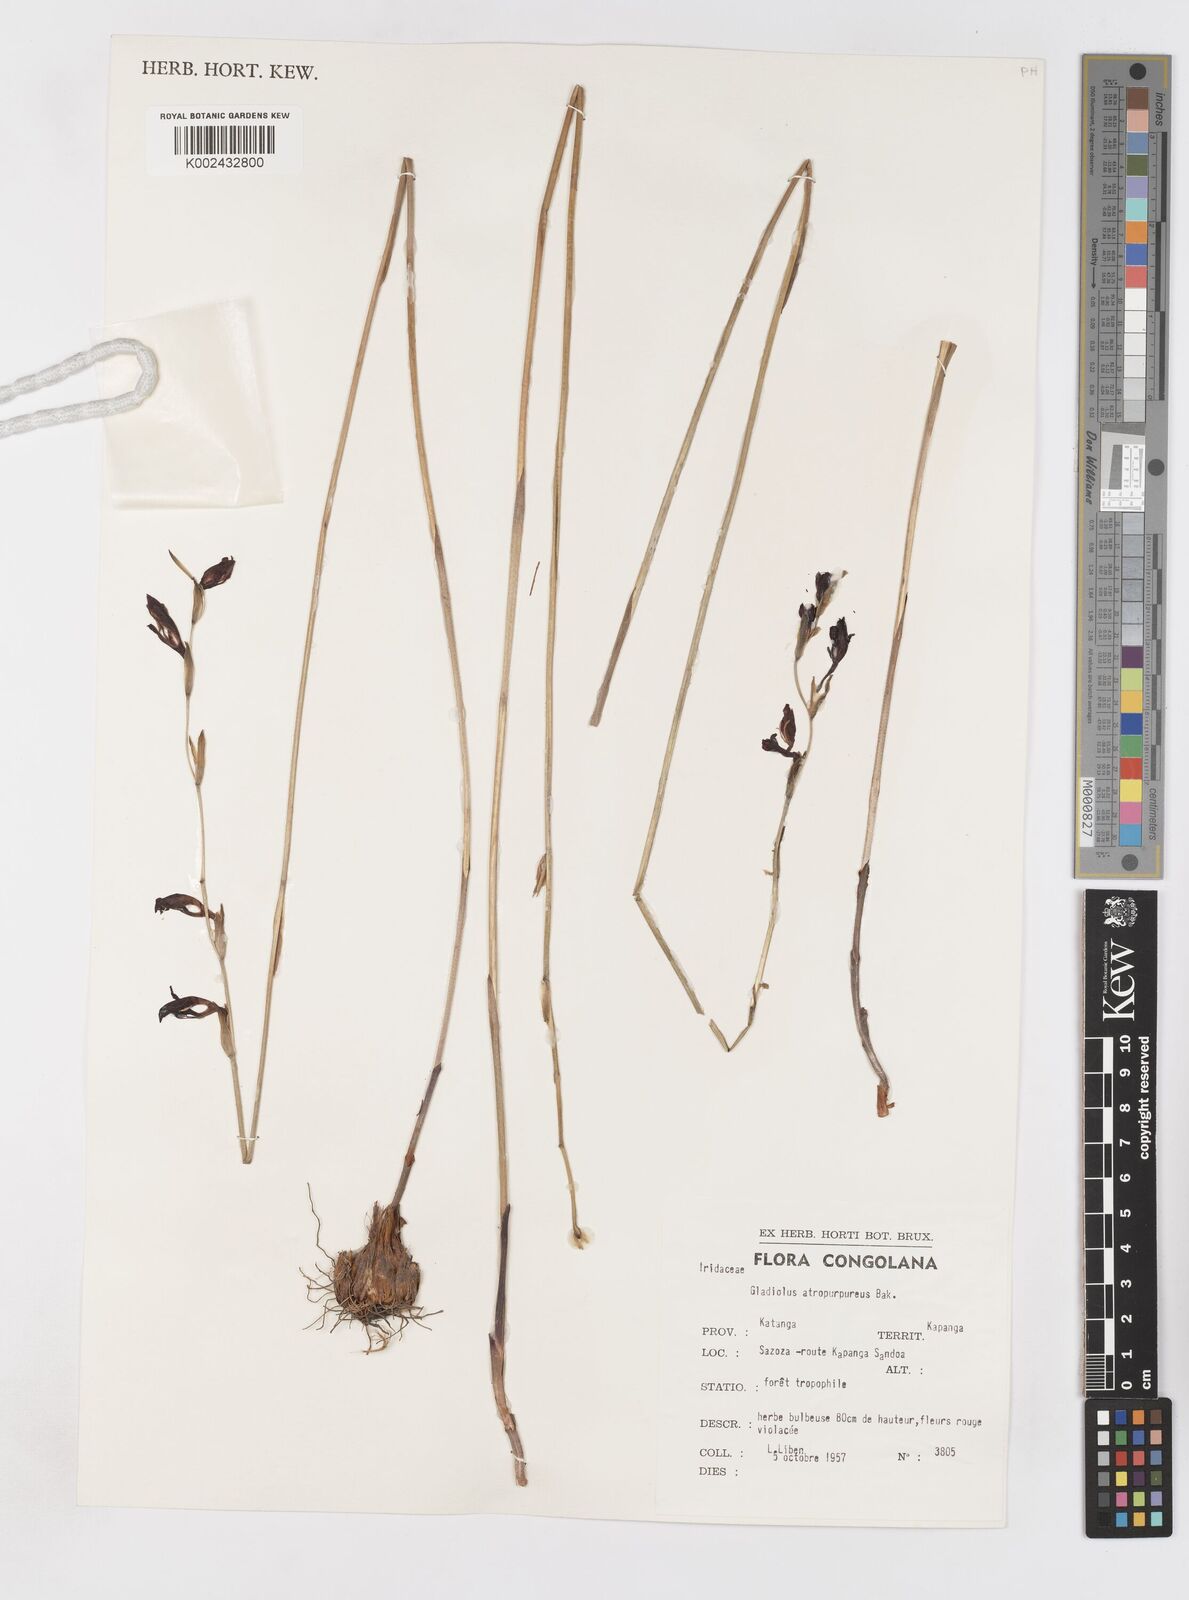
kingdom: Plantae
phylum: Tracheophyta
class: Liliopsida
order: Asparagales
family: Iridaceae
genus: Gladiolus
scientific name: Gladiolus atropurpureus
